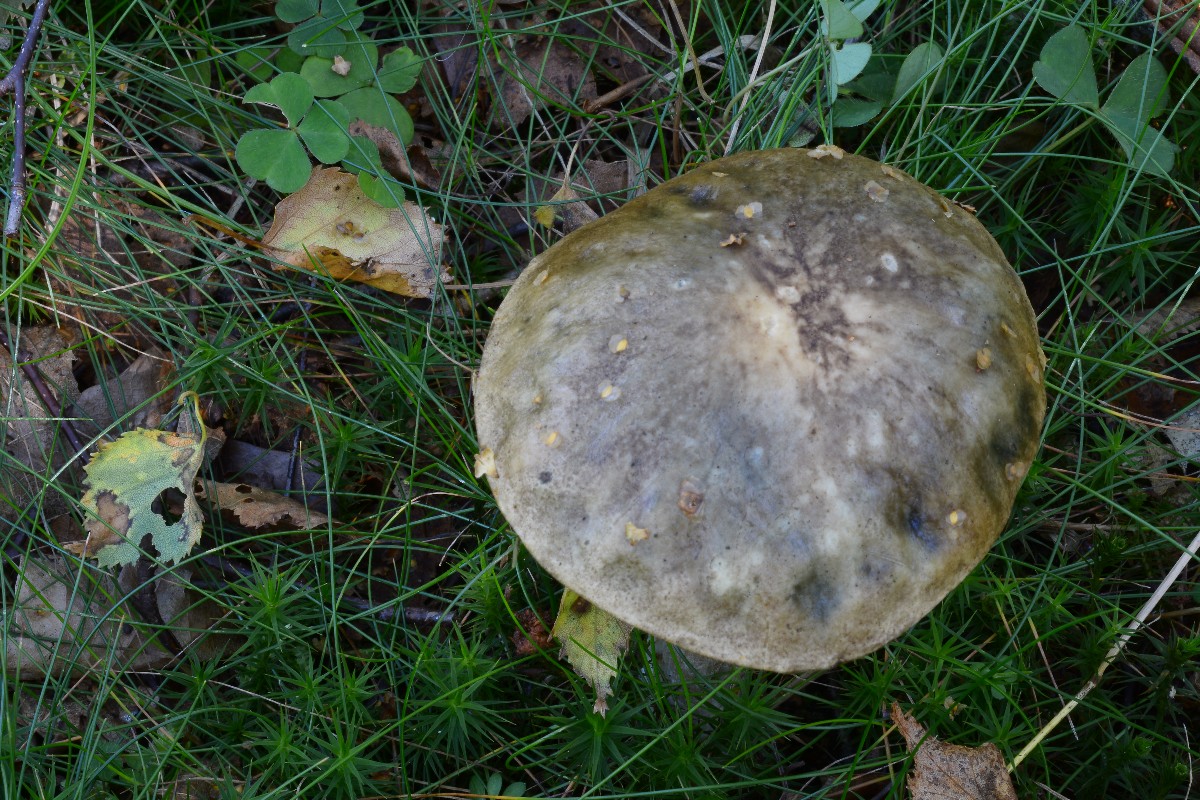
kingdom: Fungi
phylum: Basidiomycota
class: Agaricomycetes
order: Boletales
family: Boletaceae
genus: Leccinum
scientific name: Leccinum variicolor
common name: flammet skælrørhat
